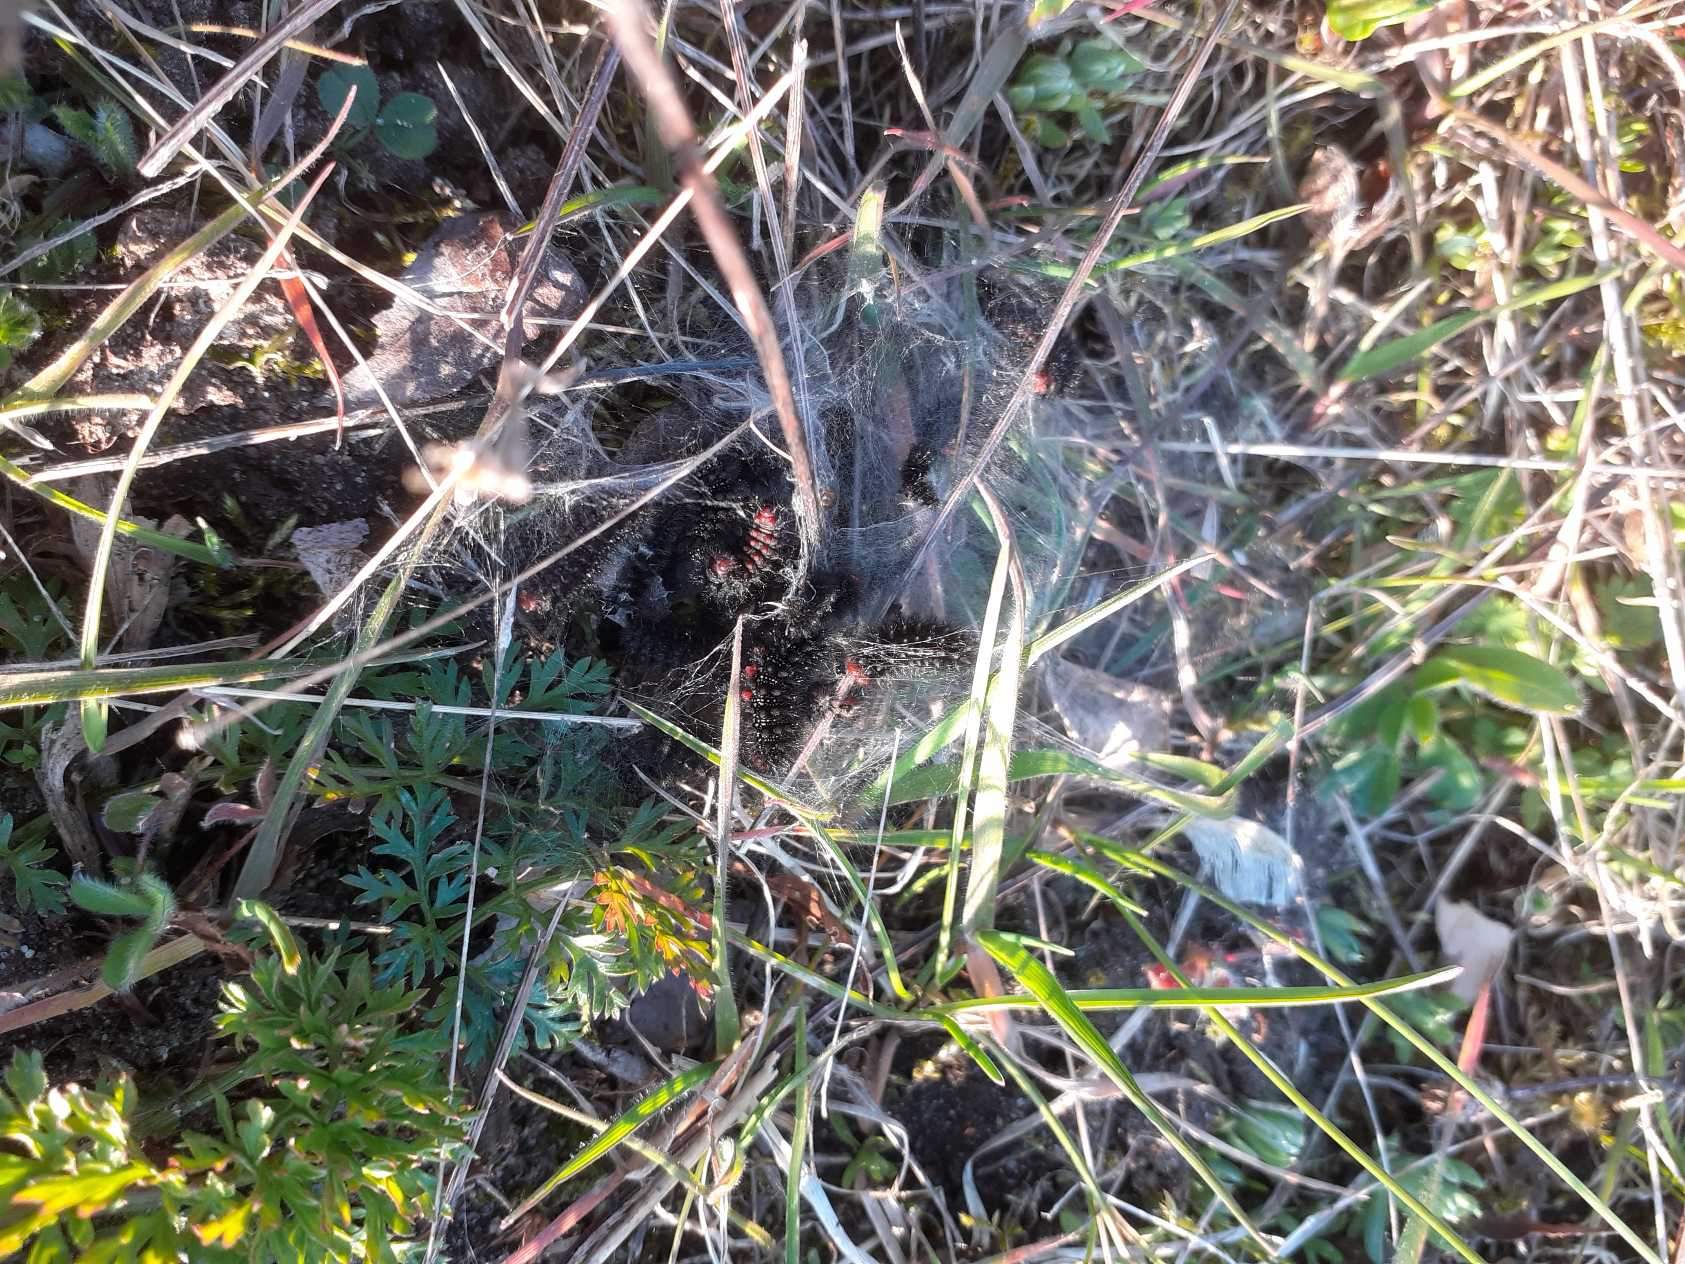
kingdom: Animalia
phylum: Arthropoda
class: Insecta
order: Lepidoptera
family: Nymphalidae
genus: Melitaea
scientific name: Melitaea cinxia
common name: Okkergul pletvinge
